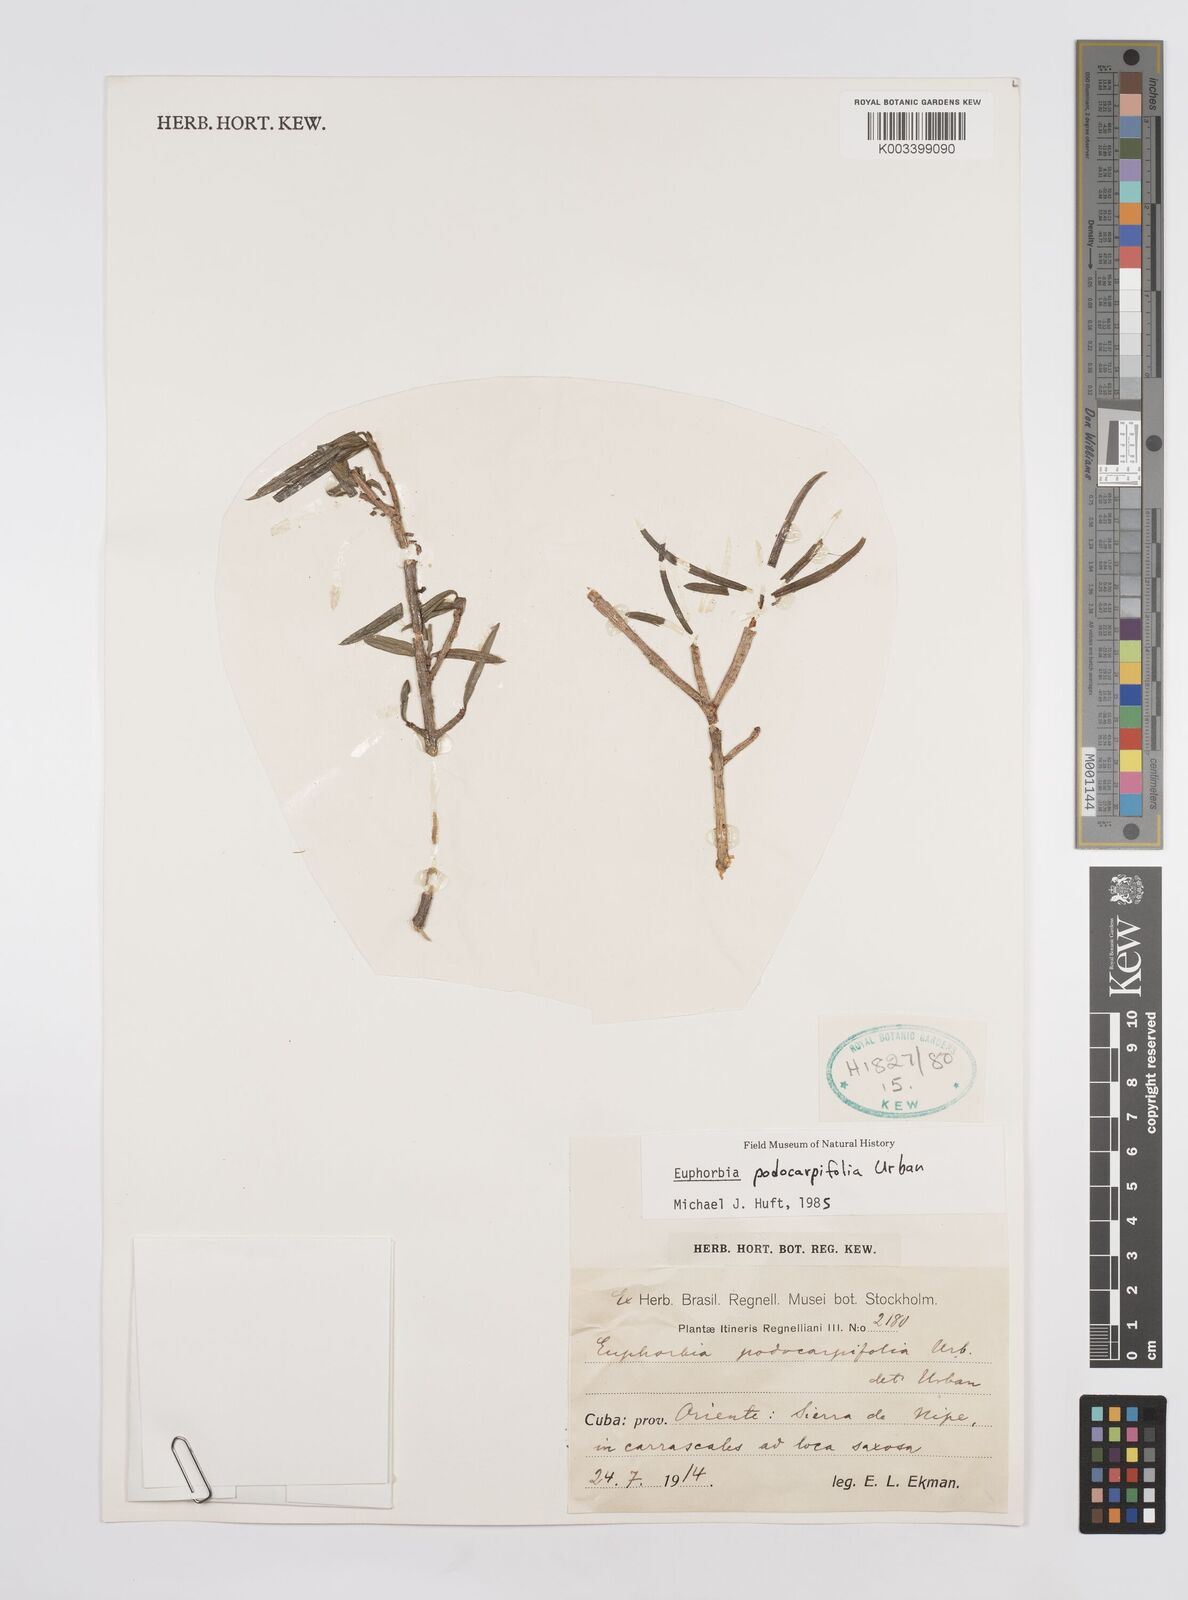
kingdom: Plantae
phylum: Tracheophyta
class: Magnoliopsida
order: Malpighiales
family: Euphorbiaceae
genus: Euphorbia
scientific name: Euphorbia podocarpifolia
